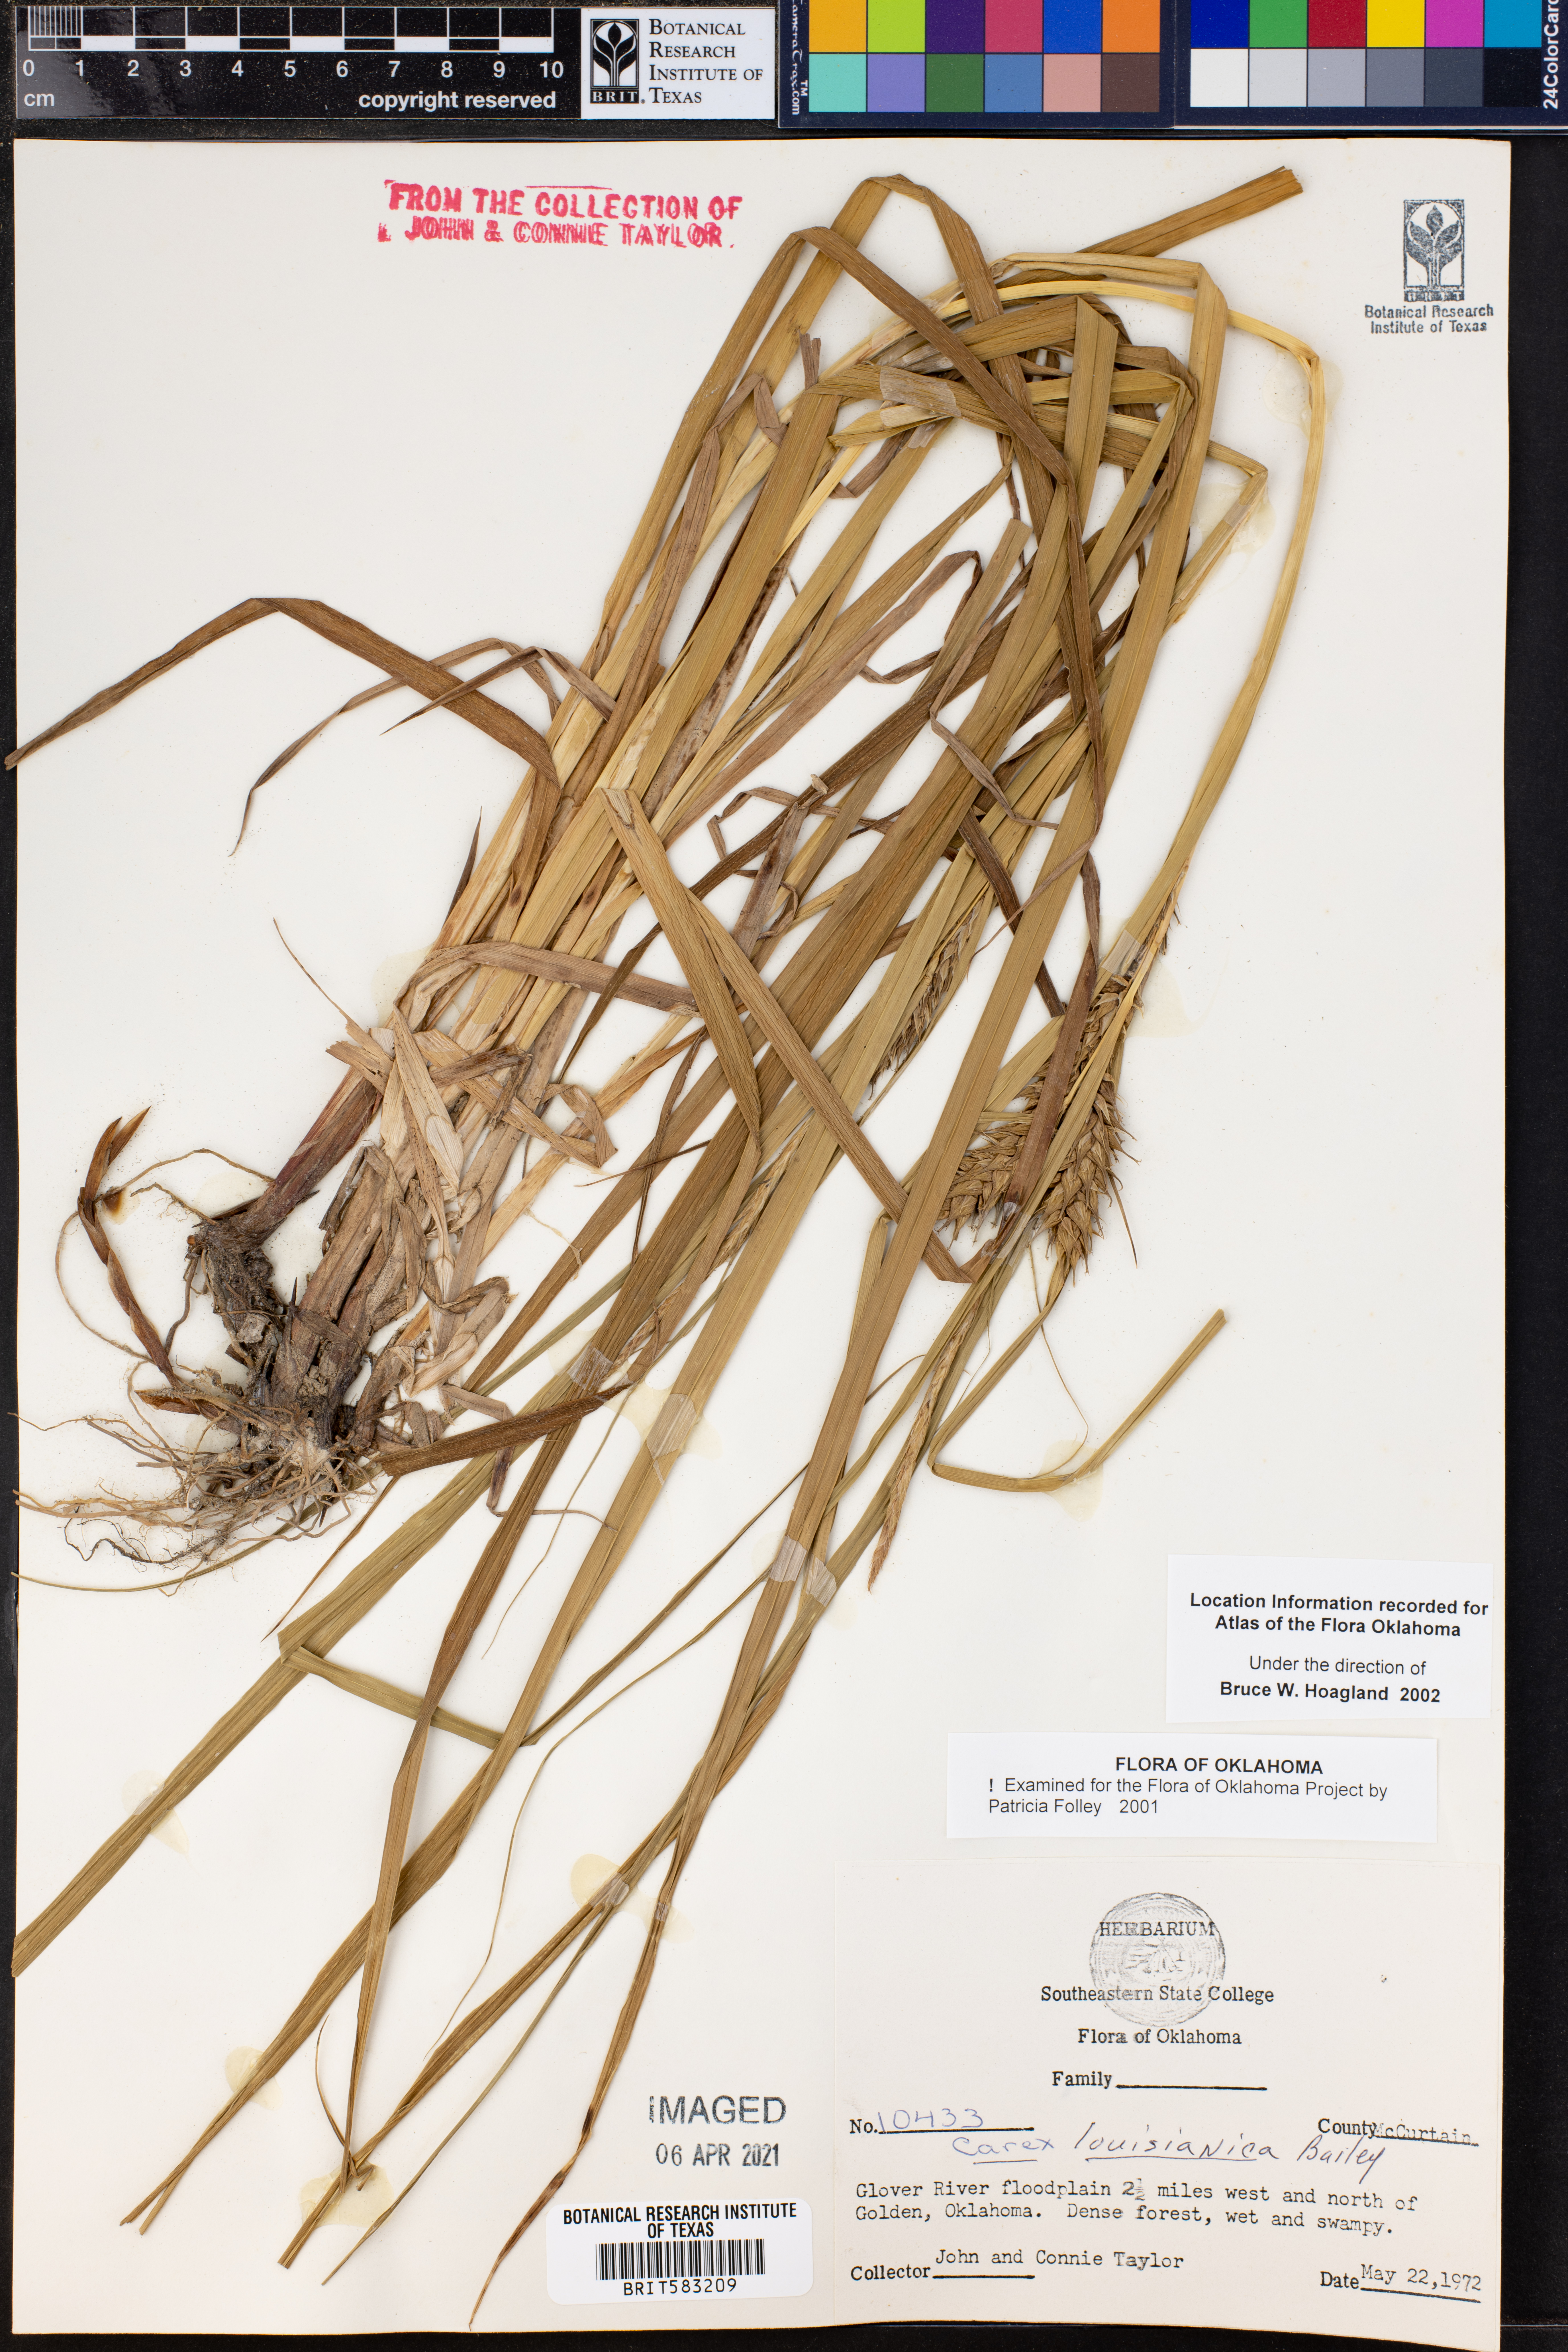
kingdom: Plantae
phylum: Tracheophyta
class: Liliopsida
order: Poales
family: Cyperaceae
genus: Carex
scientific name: Carex louisianica
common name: Louisiana sedge
